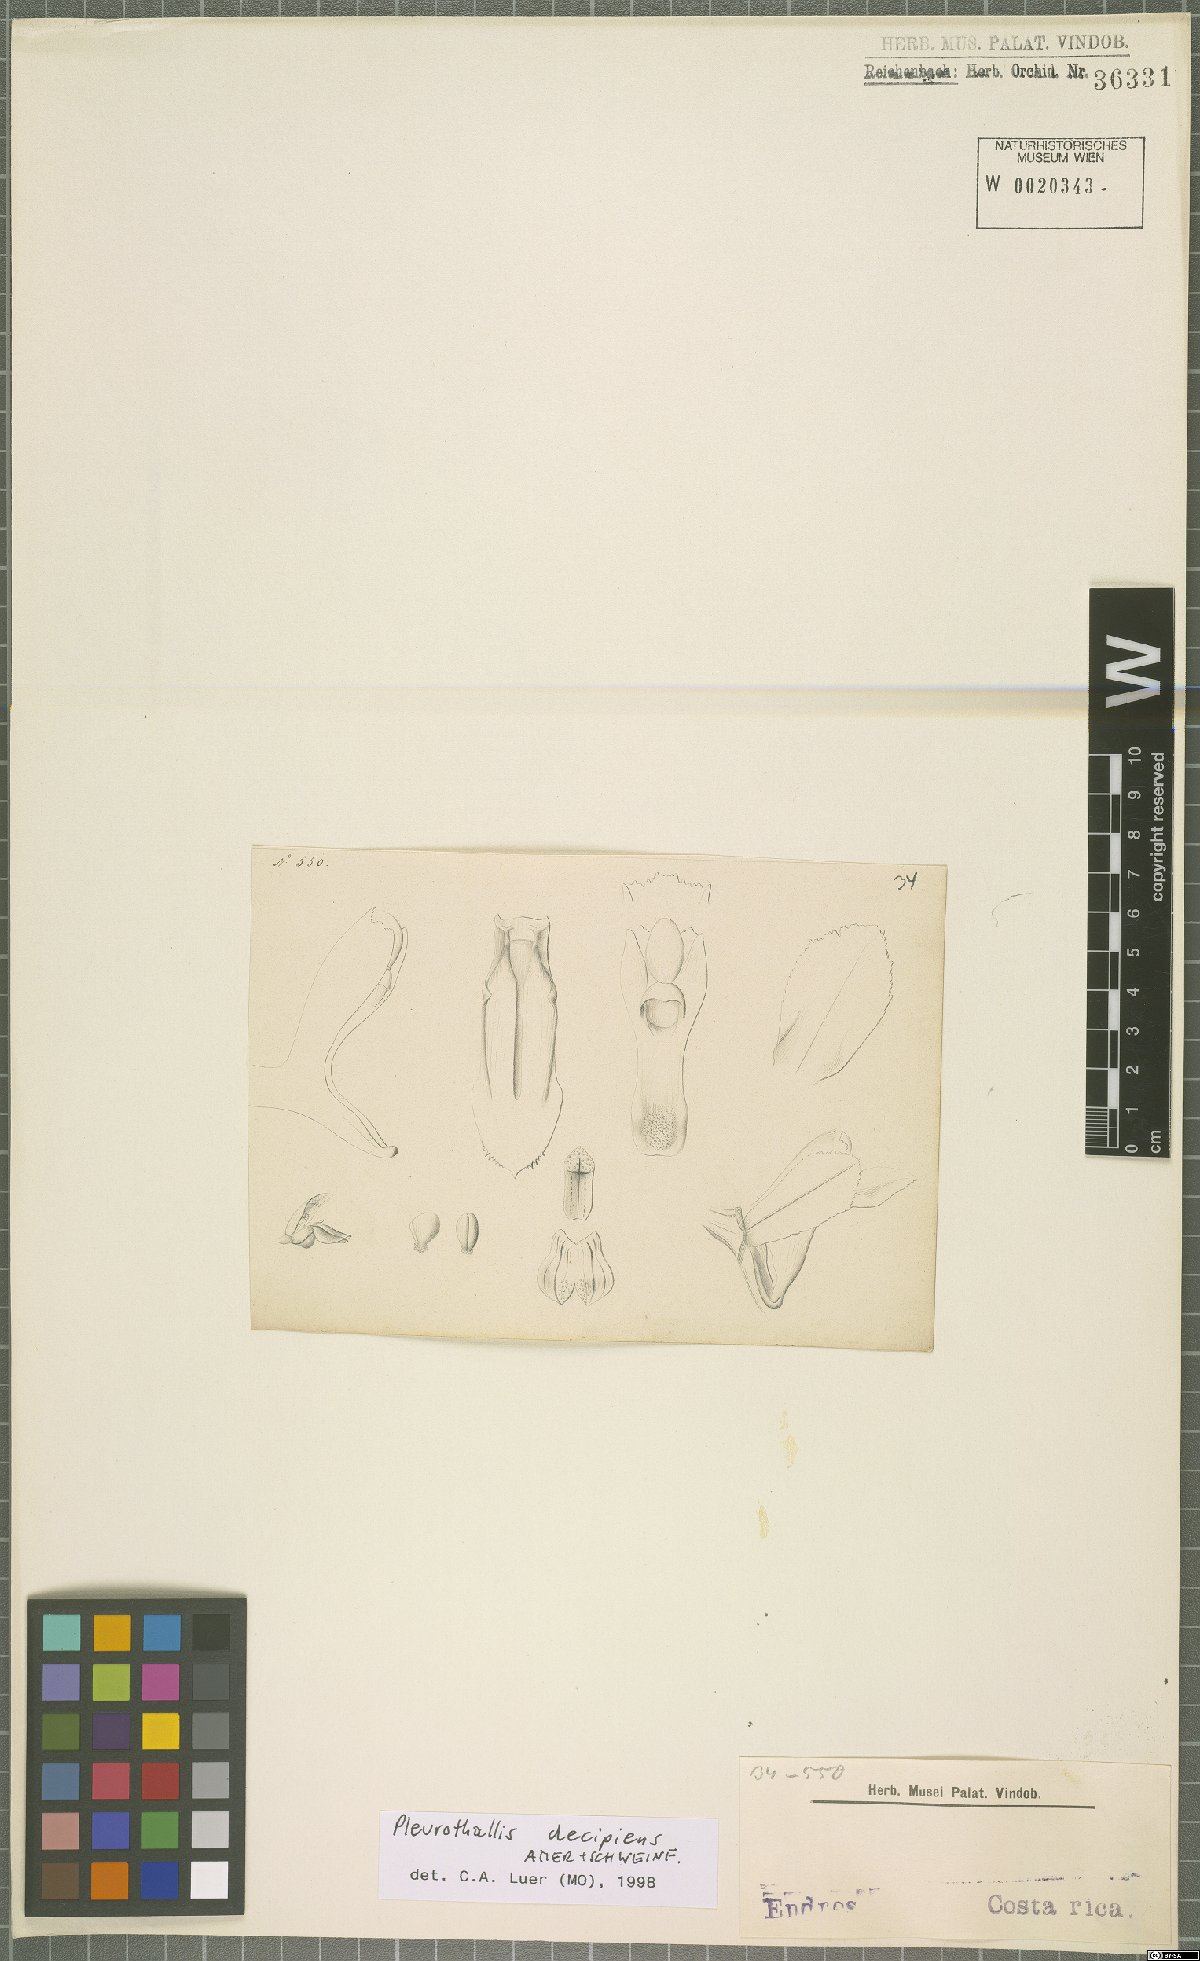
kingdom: Plantae
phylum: Tracheophyta
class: Liliopsida
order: Asparagales
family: Orchidaceae
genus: Acianthera
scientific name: Acianthera decipiens
